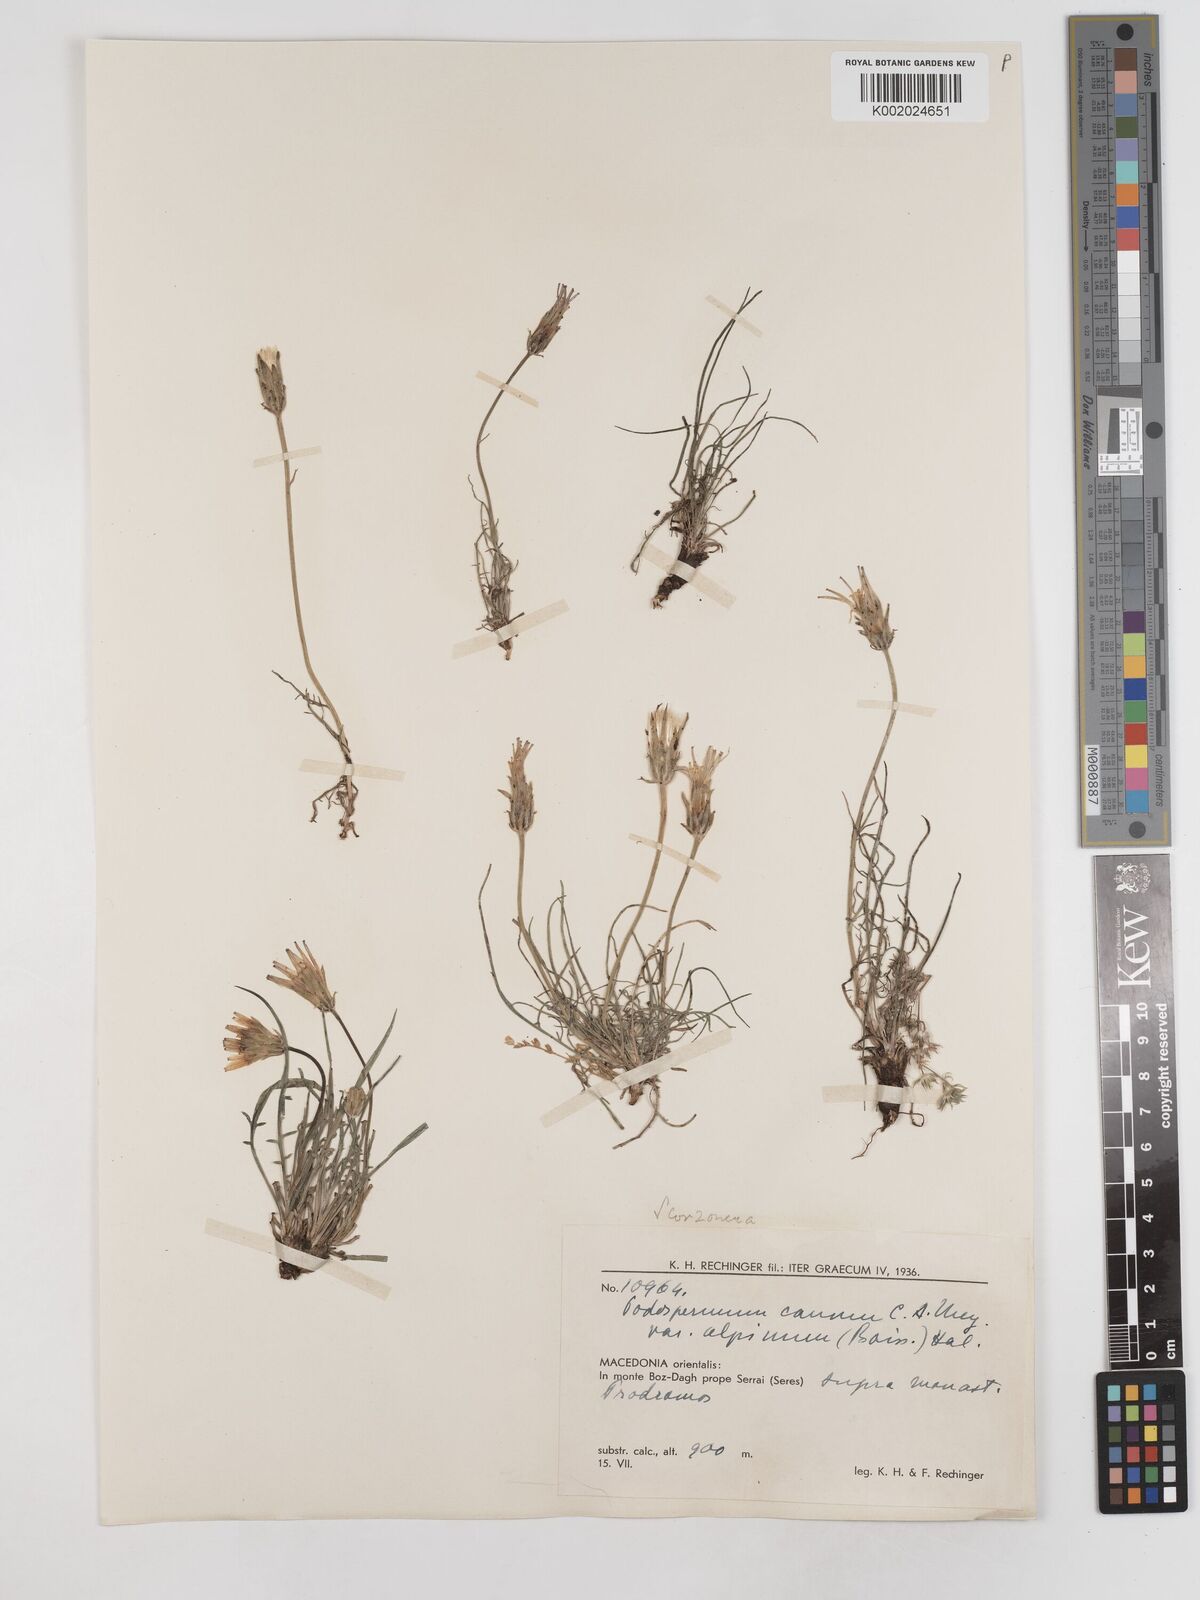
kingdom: Plantae
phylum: Tracheophyta
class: Magnoliopsida
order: Asterales
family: Asteraceae
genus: Scorzonera
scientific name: Scorzonera cana
